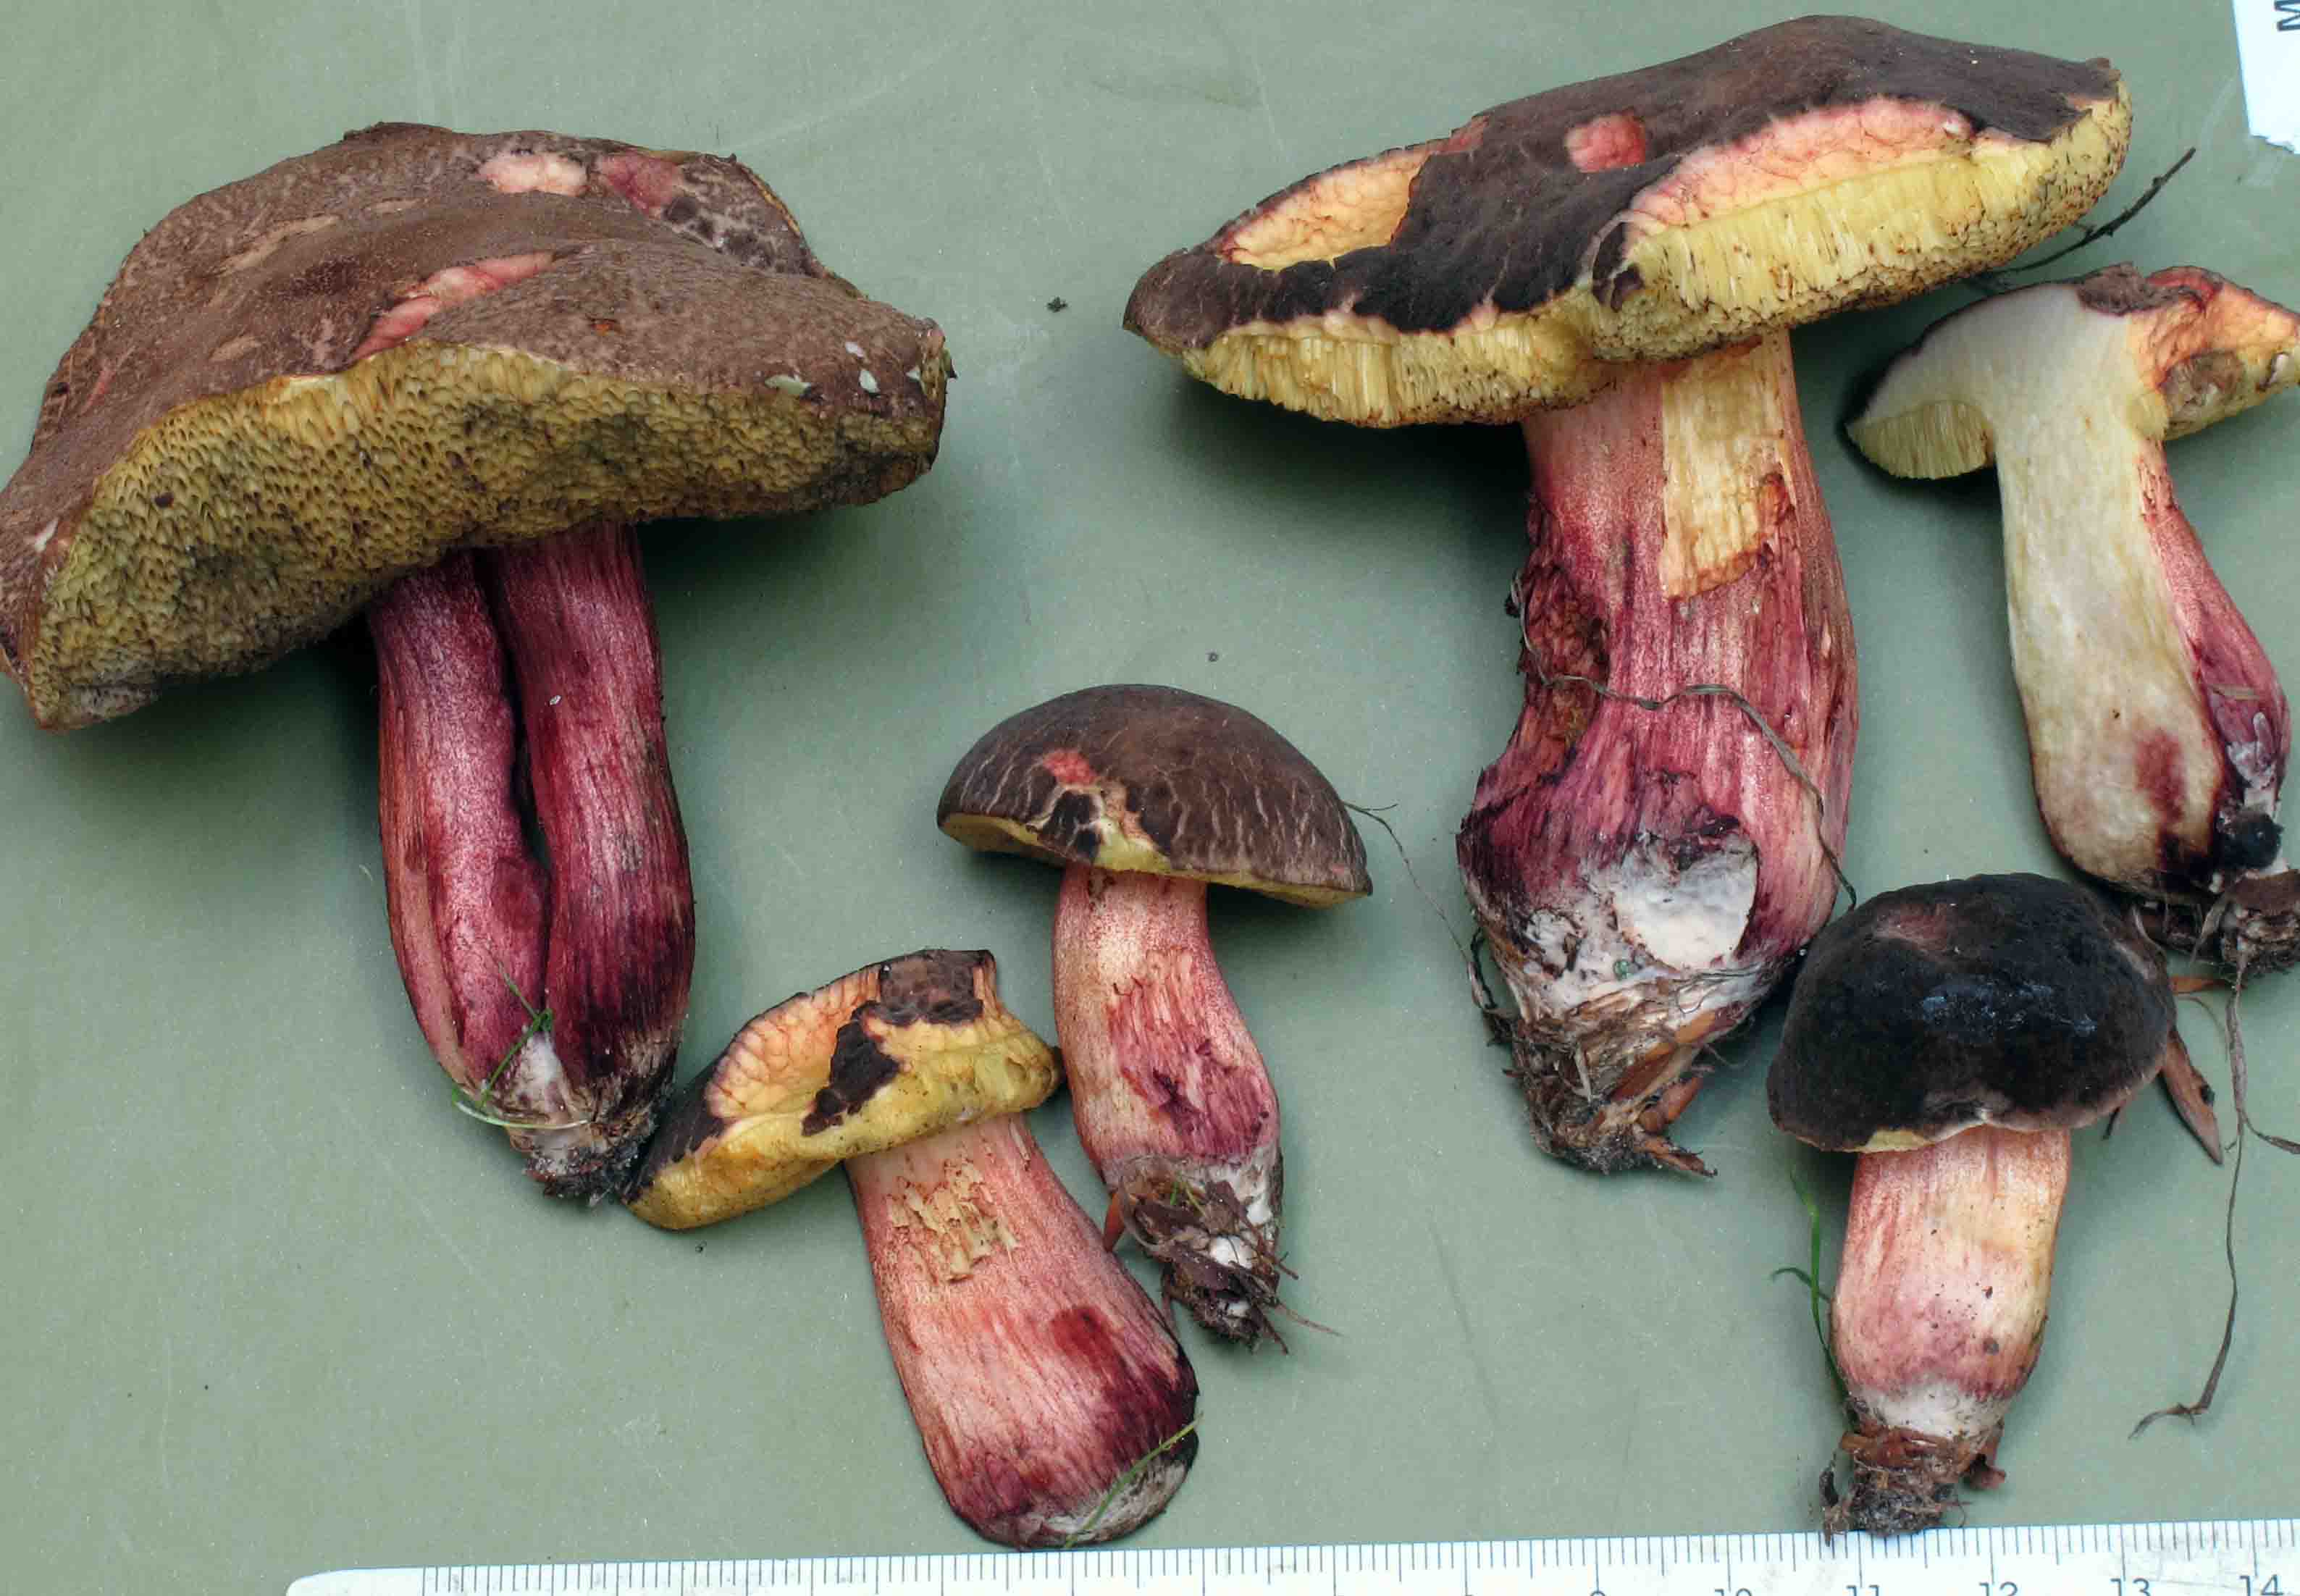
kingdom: Fungi
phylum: Basidiomycota
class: Agaricomycetes
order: Boletales
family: Boletaceae
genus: Xerocomellus
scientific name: Xerocomellus pruinatus
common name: dugget rørhat
